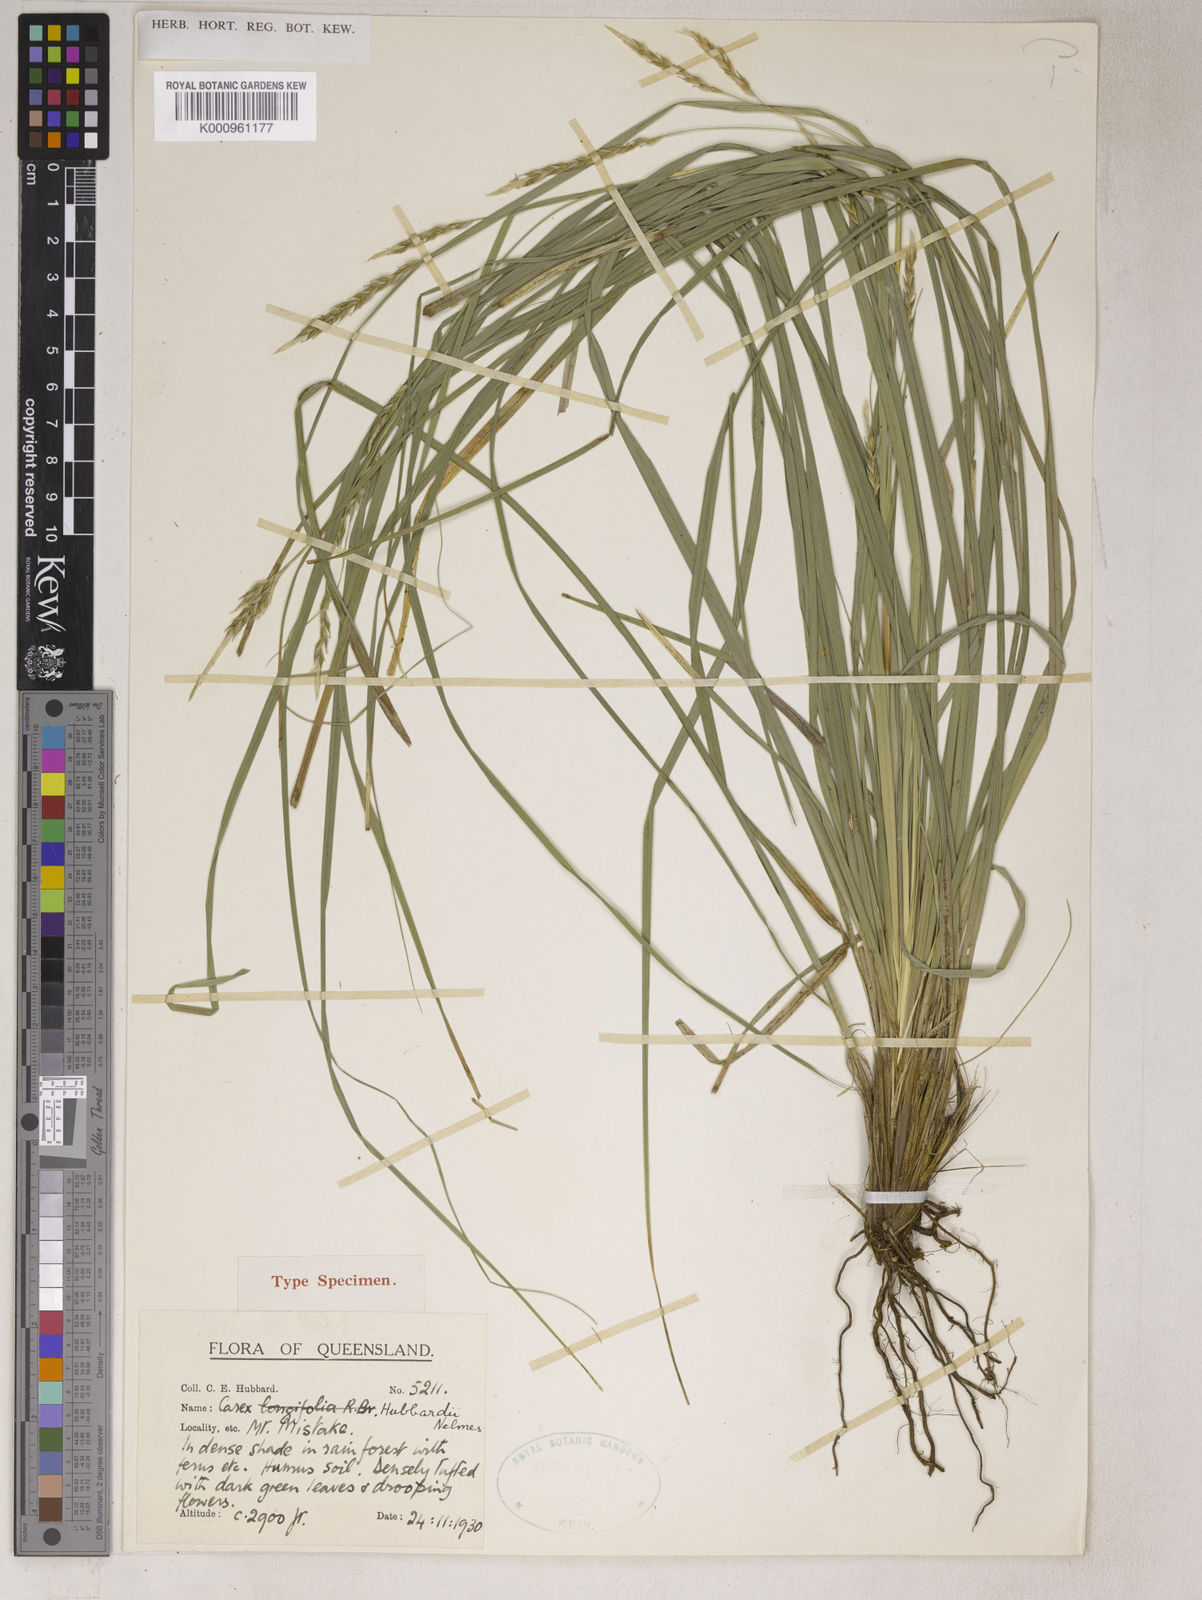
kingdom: Plantae
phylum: Tracheophyta
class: Liliopsida
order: Poales
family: Cyperaceae
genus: Carex
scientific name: Carex hubbardii
